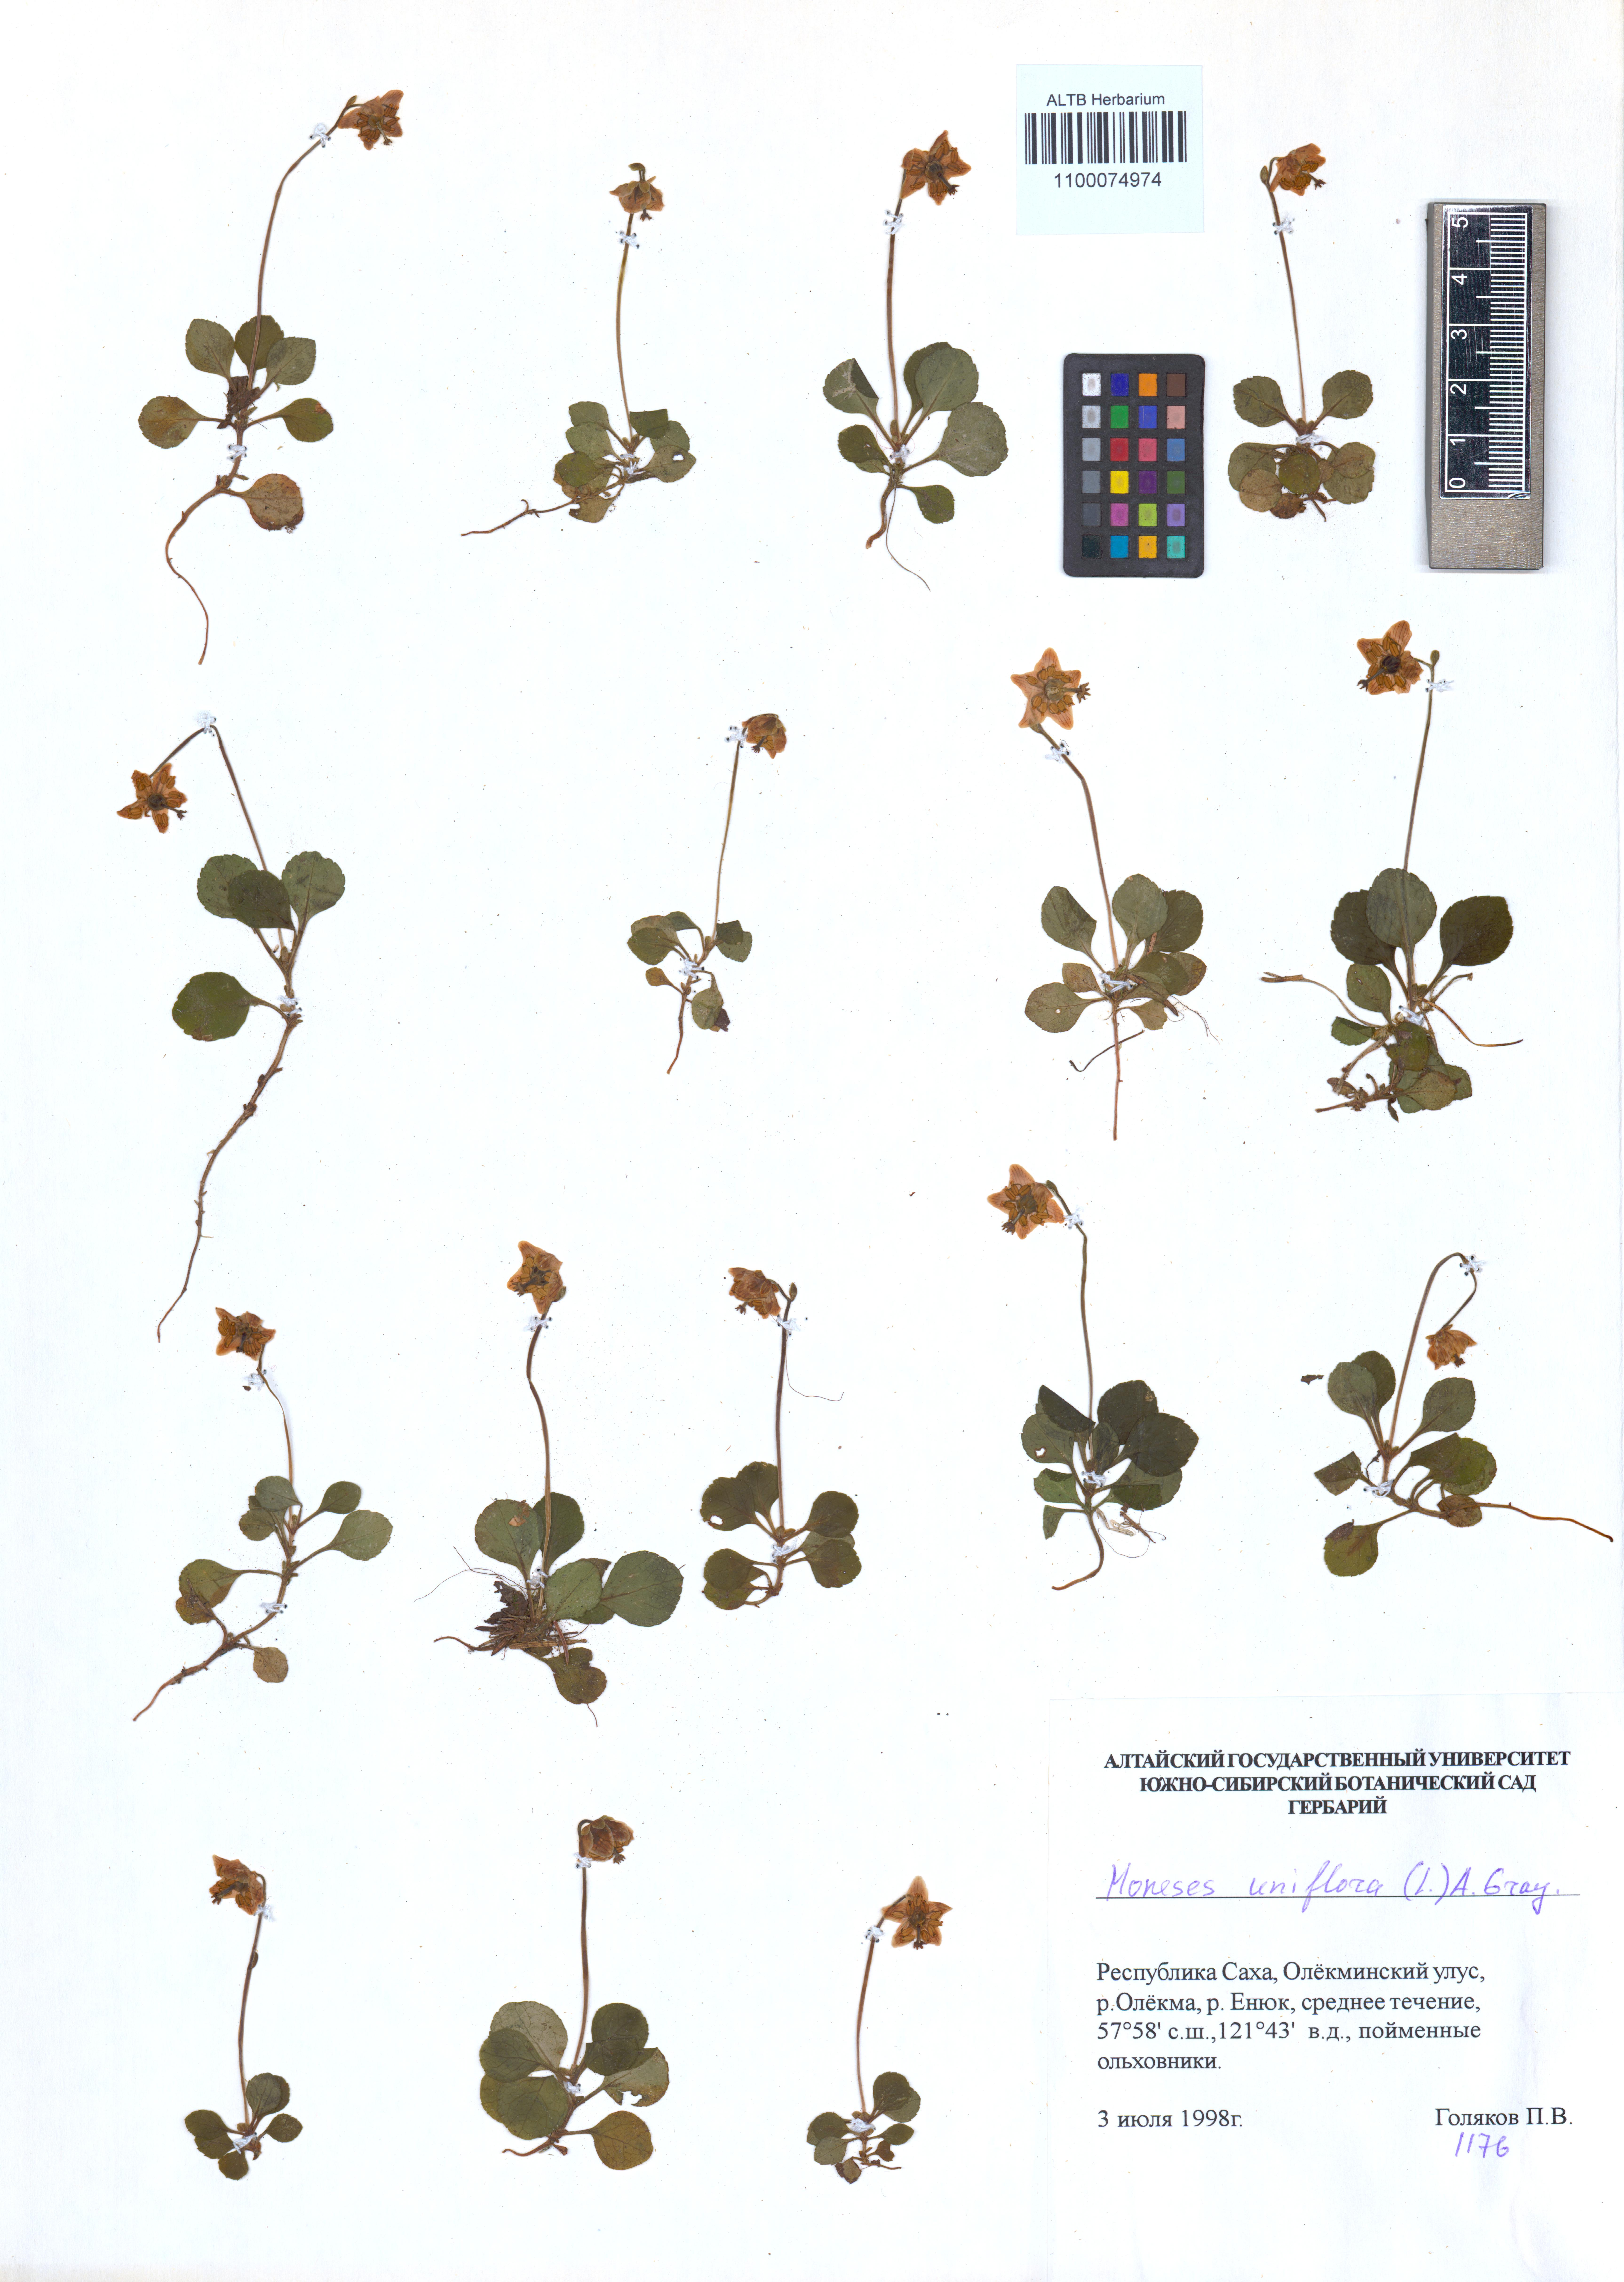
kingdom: Plantae
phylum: Tracheophyta
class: Magnoliopsida
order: Ericales
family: Ericaceae
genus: Moneses
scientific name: Moneses uniflora
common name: One-flowered wintergreen
